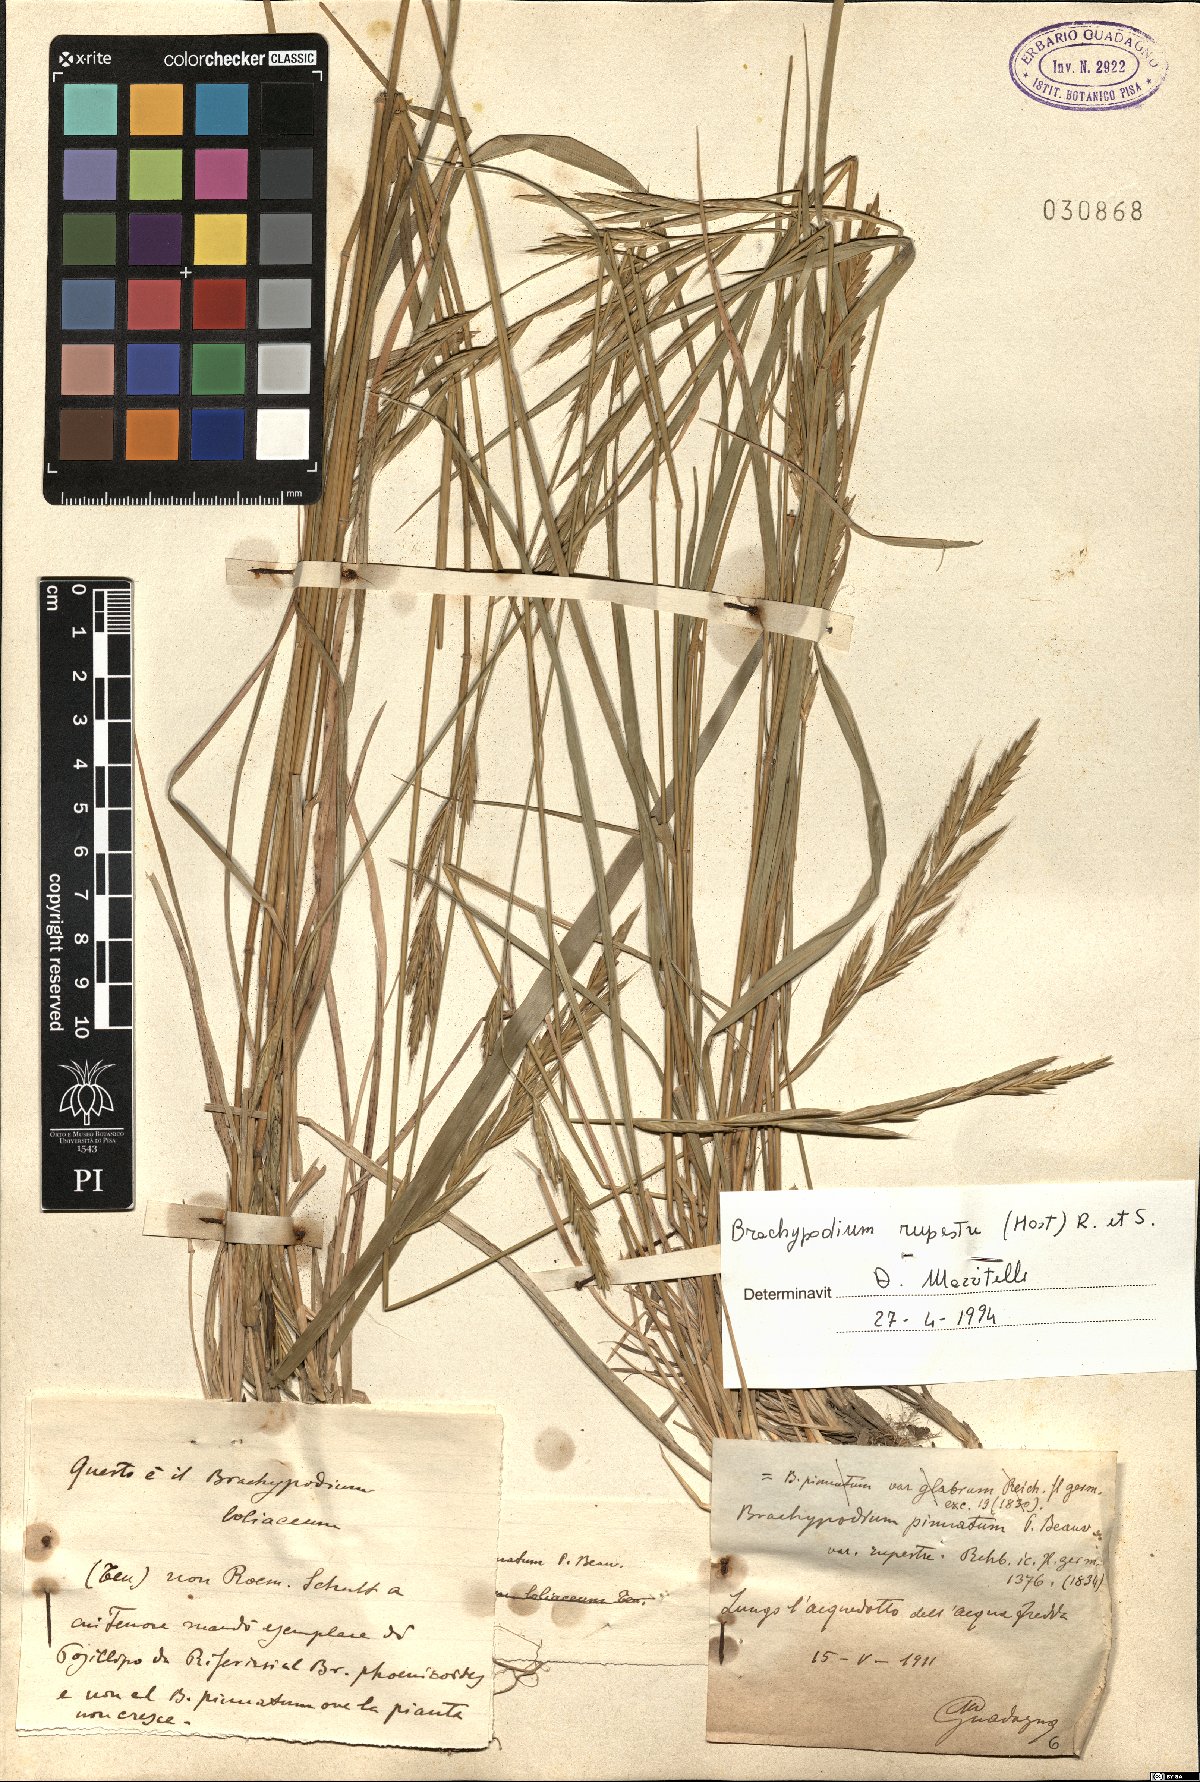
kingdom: Plantae
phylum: Tracheophyta
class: Liliopsida
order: Poales
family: Poaceae
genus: Brachypodium
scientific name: Brachypodium pinnatum
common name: Tor grass
